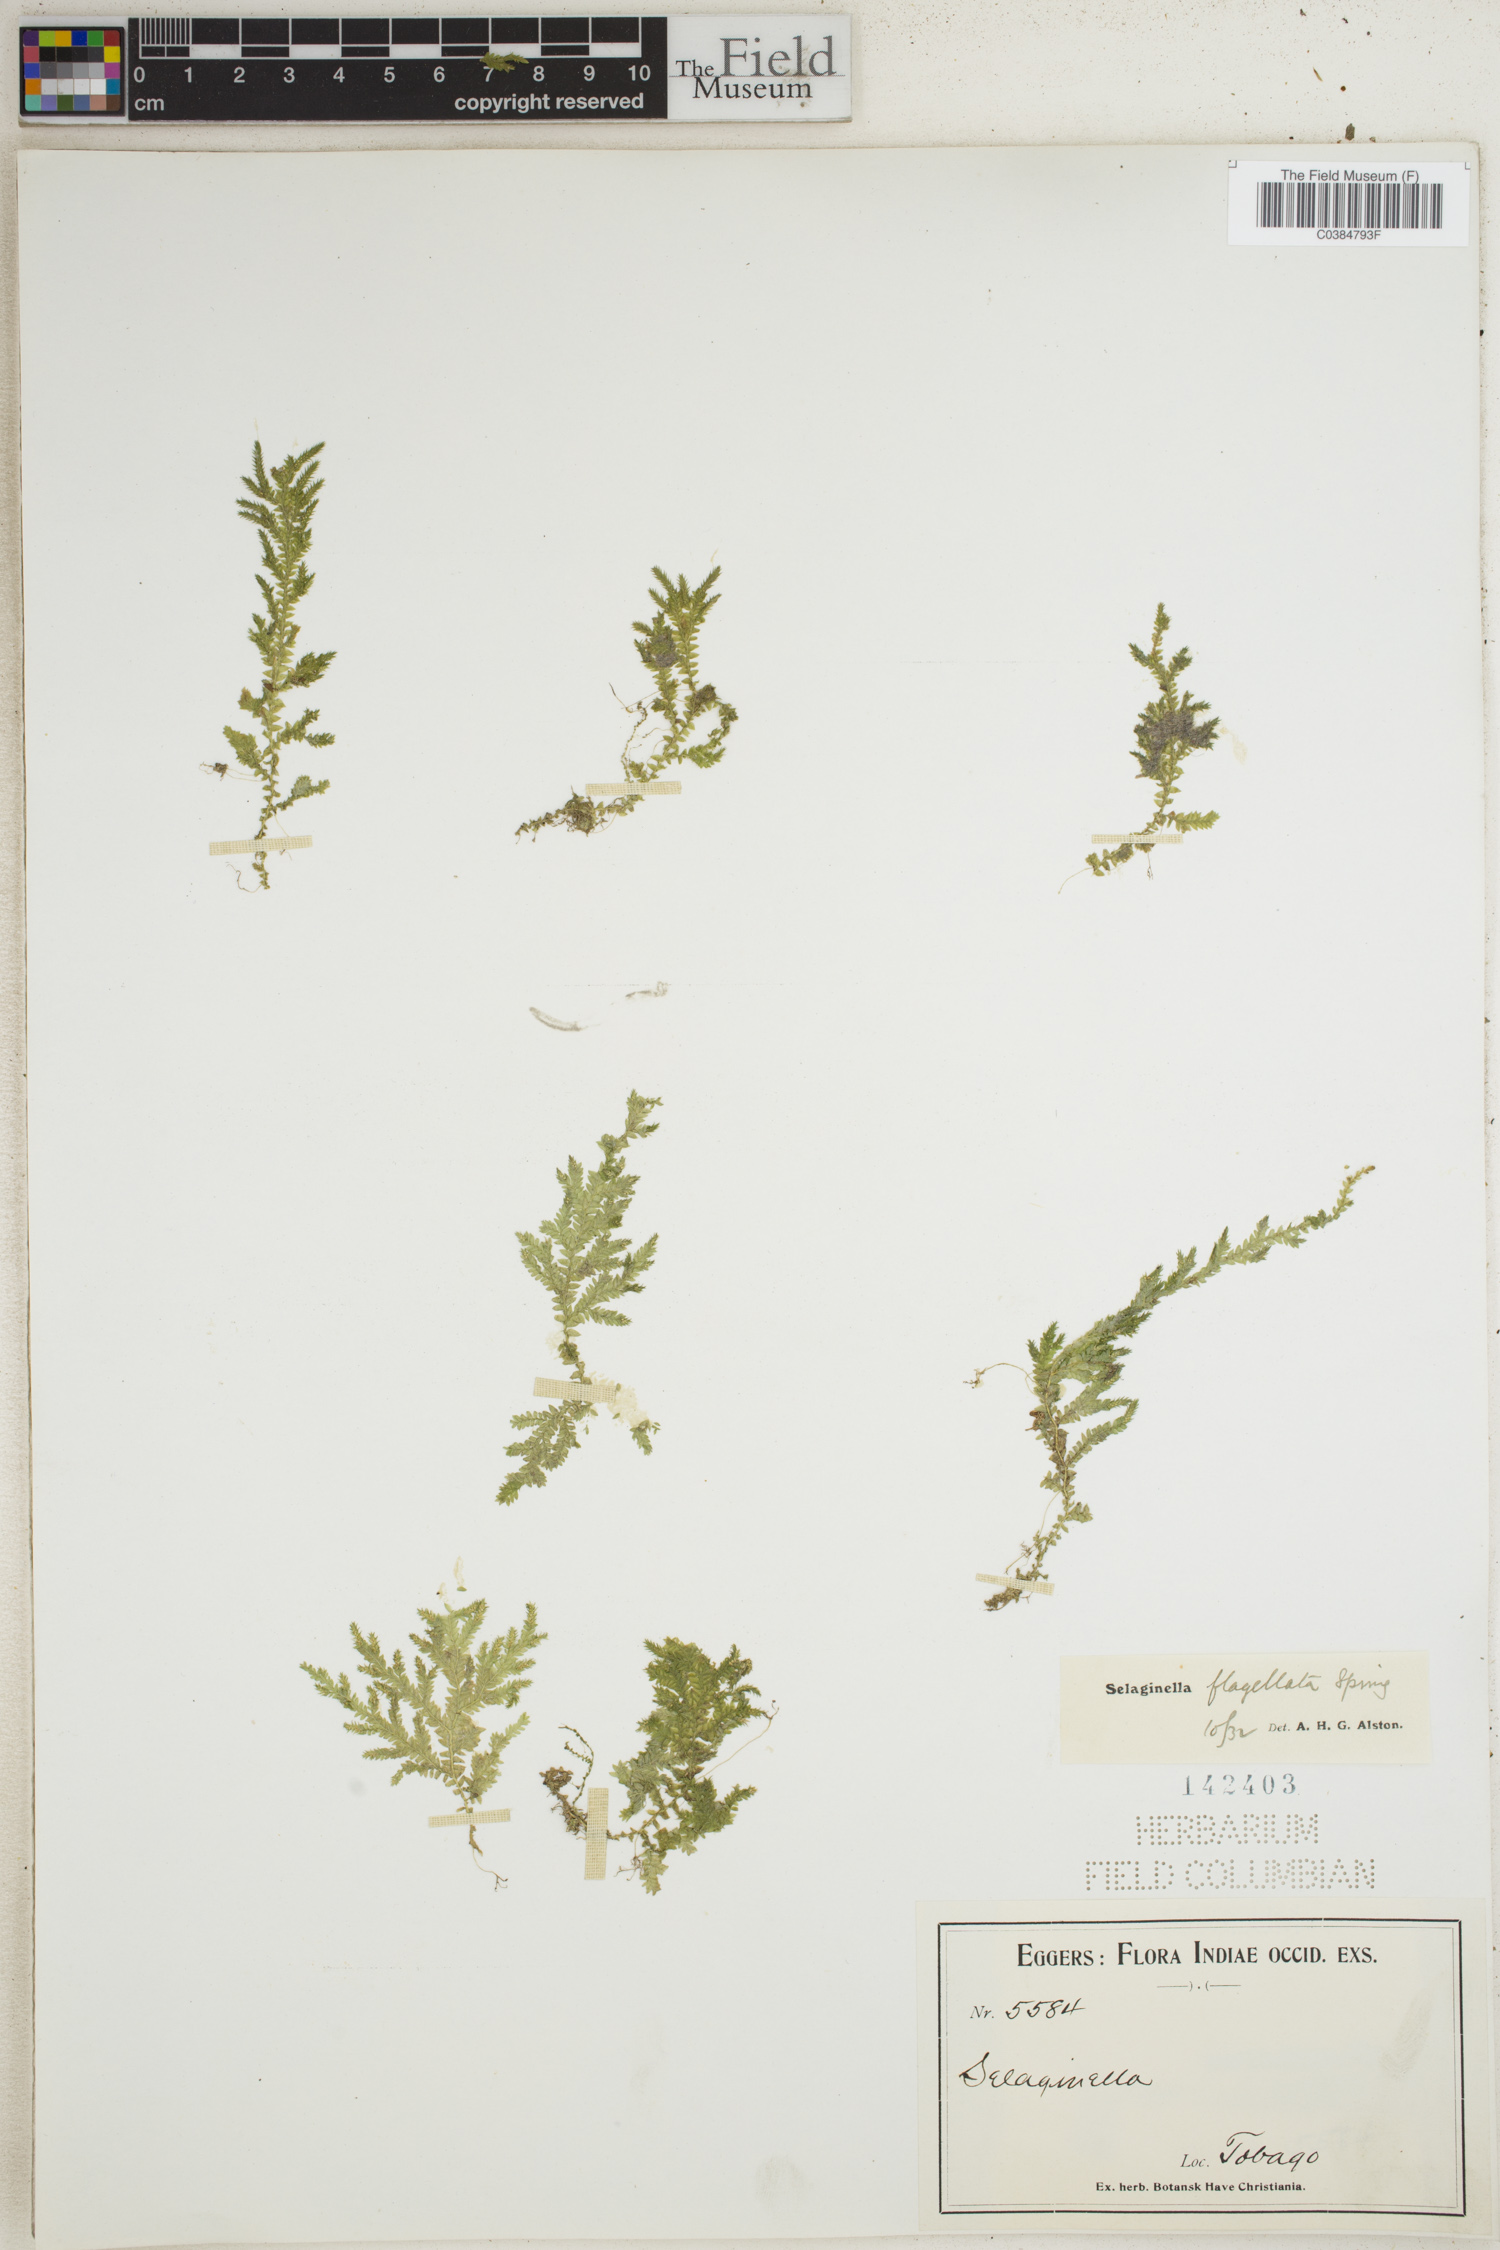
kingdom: Plantae
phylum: Tracheophyta
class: Lycopodiopsida
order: Selaginellales
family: Selaginellaceae
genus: Selaginella
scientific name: Selaginella flabellata
